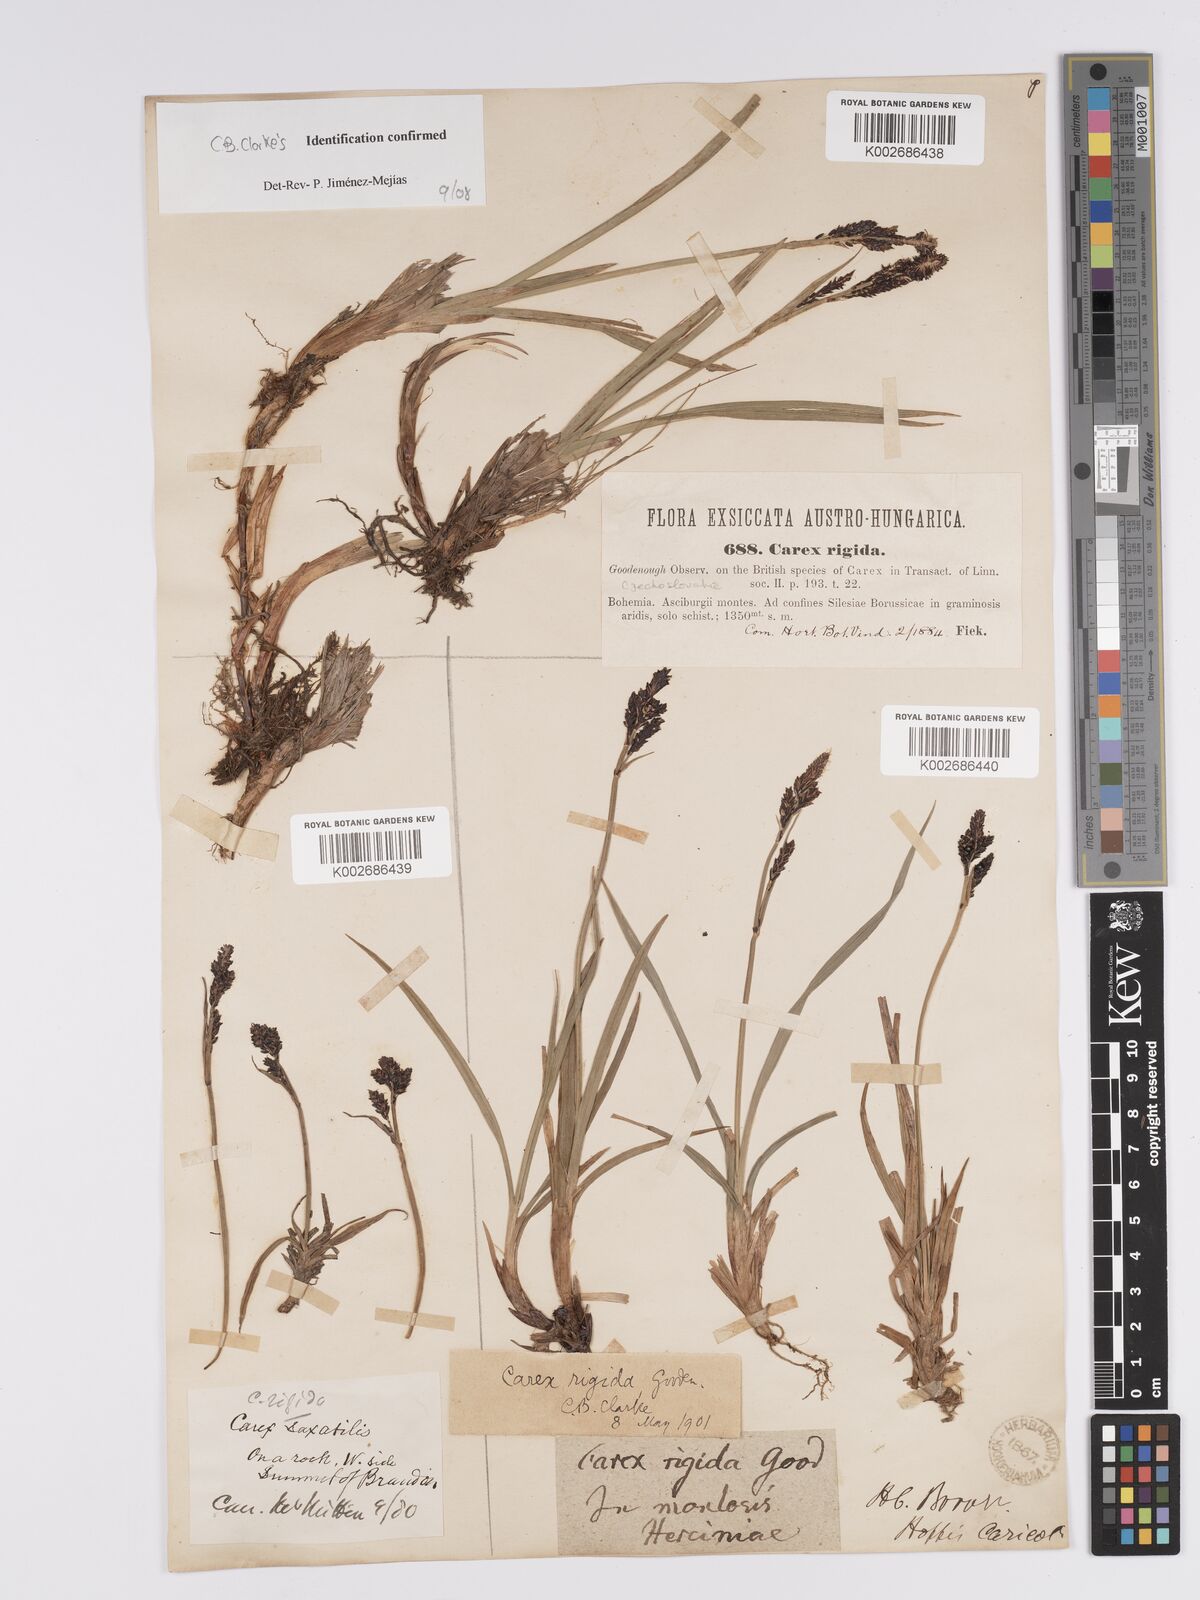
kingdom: Plantae
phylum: Tracheophyta
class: Liliopsida
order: Poales
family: Cyperaceae
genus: Carex
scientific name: Carex bigelowii
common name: Stiff sedge
